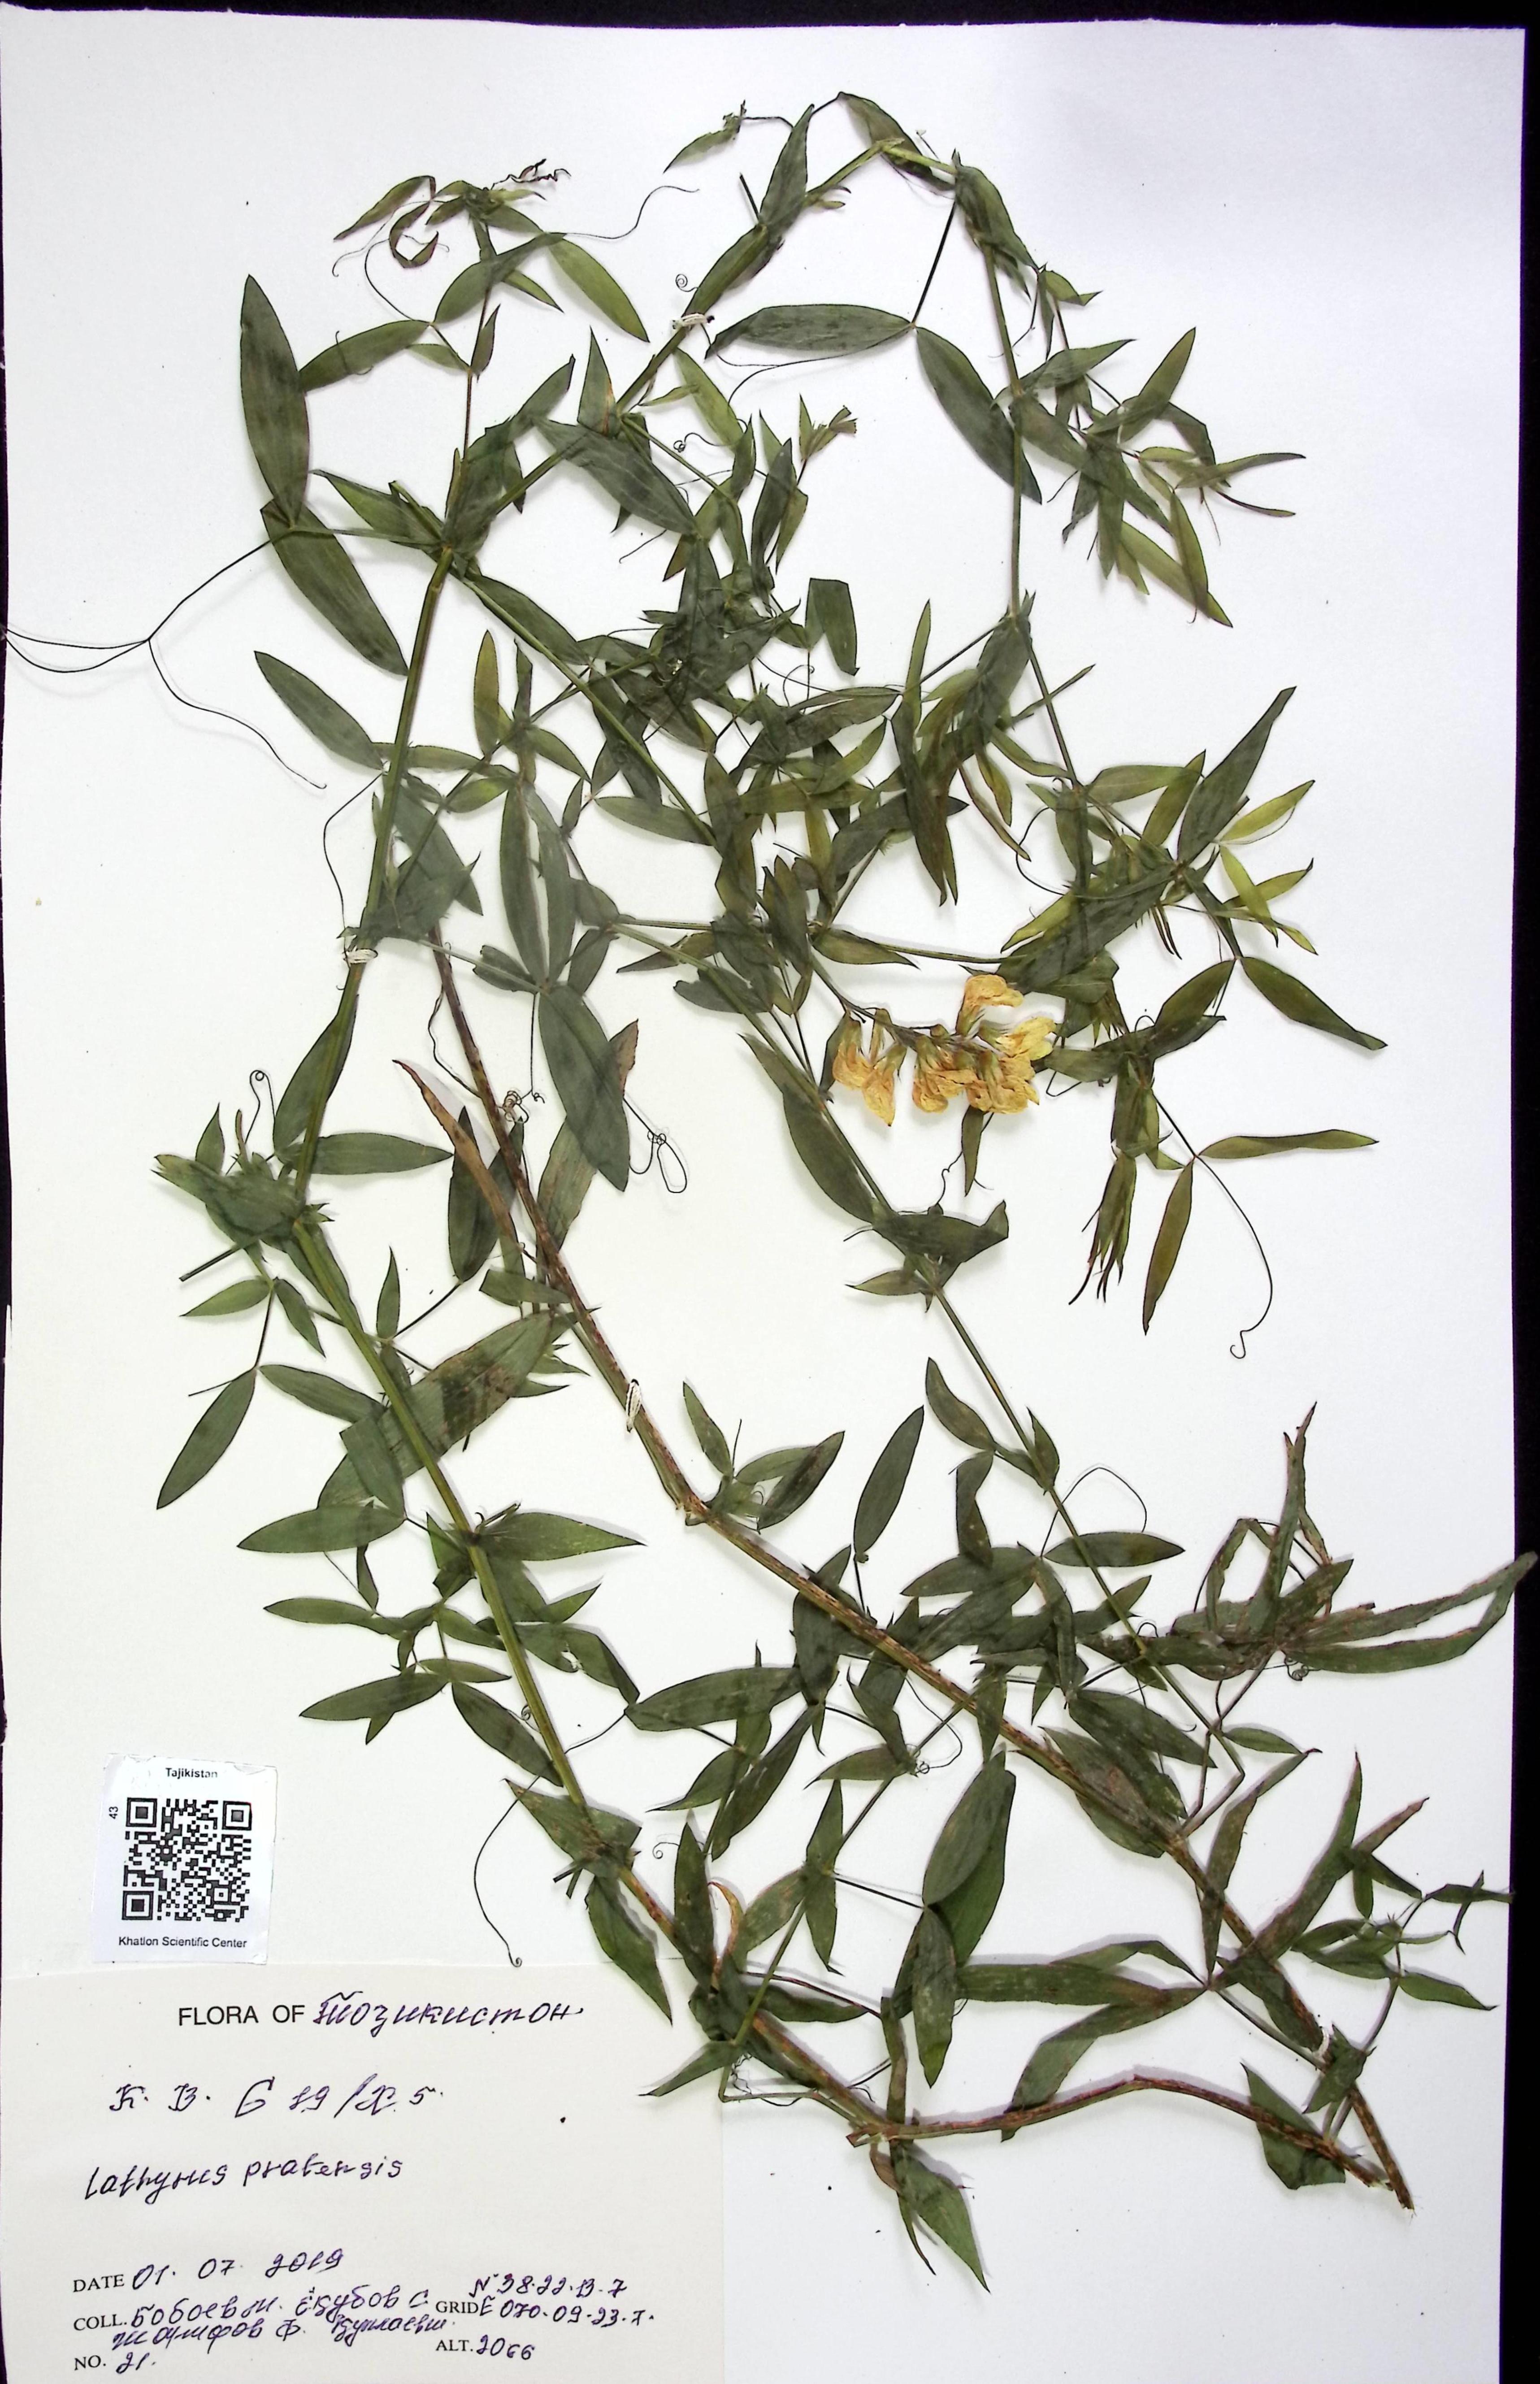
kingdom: Plantae
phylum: Tracheophyta
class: Magnoliopsida
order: Fabales
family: Fabaceae
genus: Lathyrus
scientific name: Lathyrus pratensis
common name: Meadow vetchling
